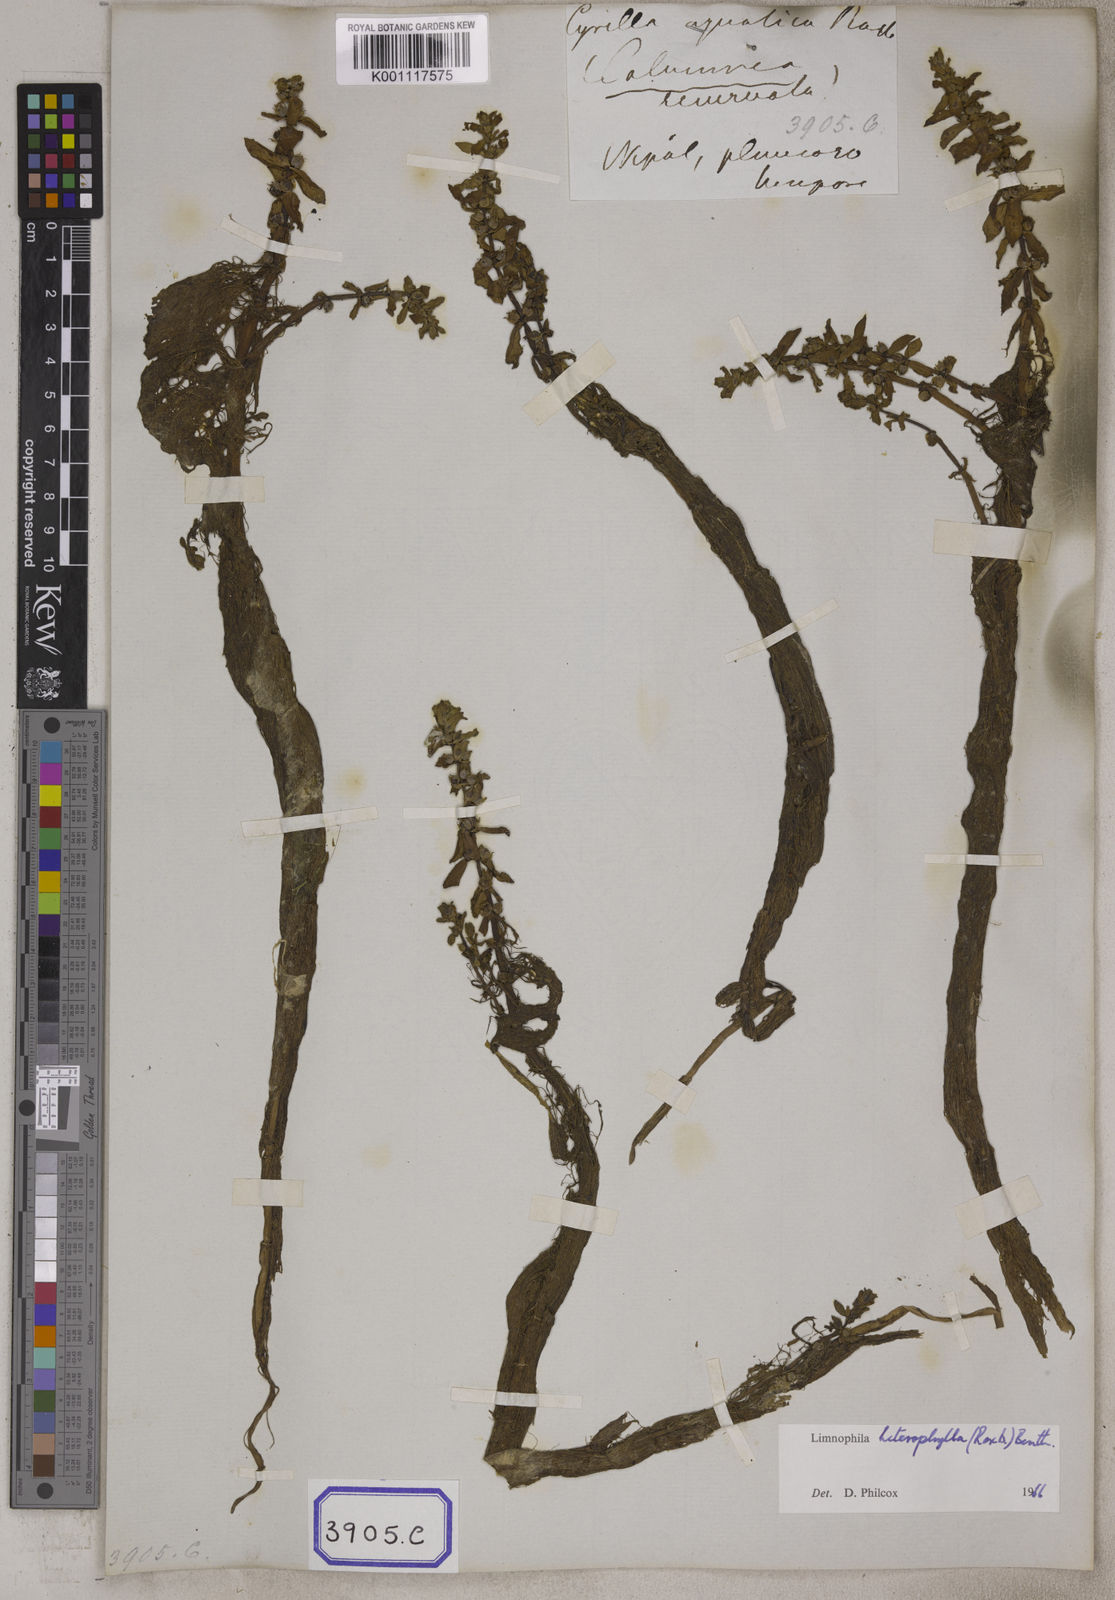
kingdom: Plantae
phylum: Tracheophyta
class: Magnoliopsida
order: Lamiales
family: Plantaginaceae
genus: Limnophila
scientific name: Limnophila heterophylla
